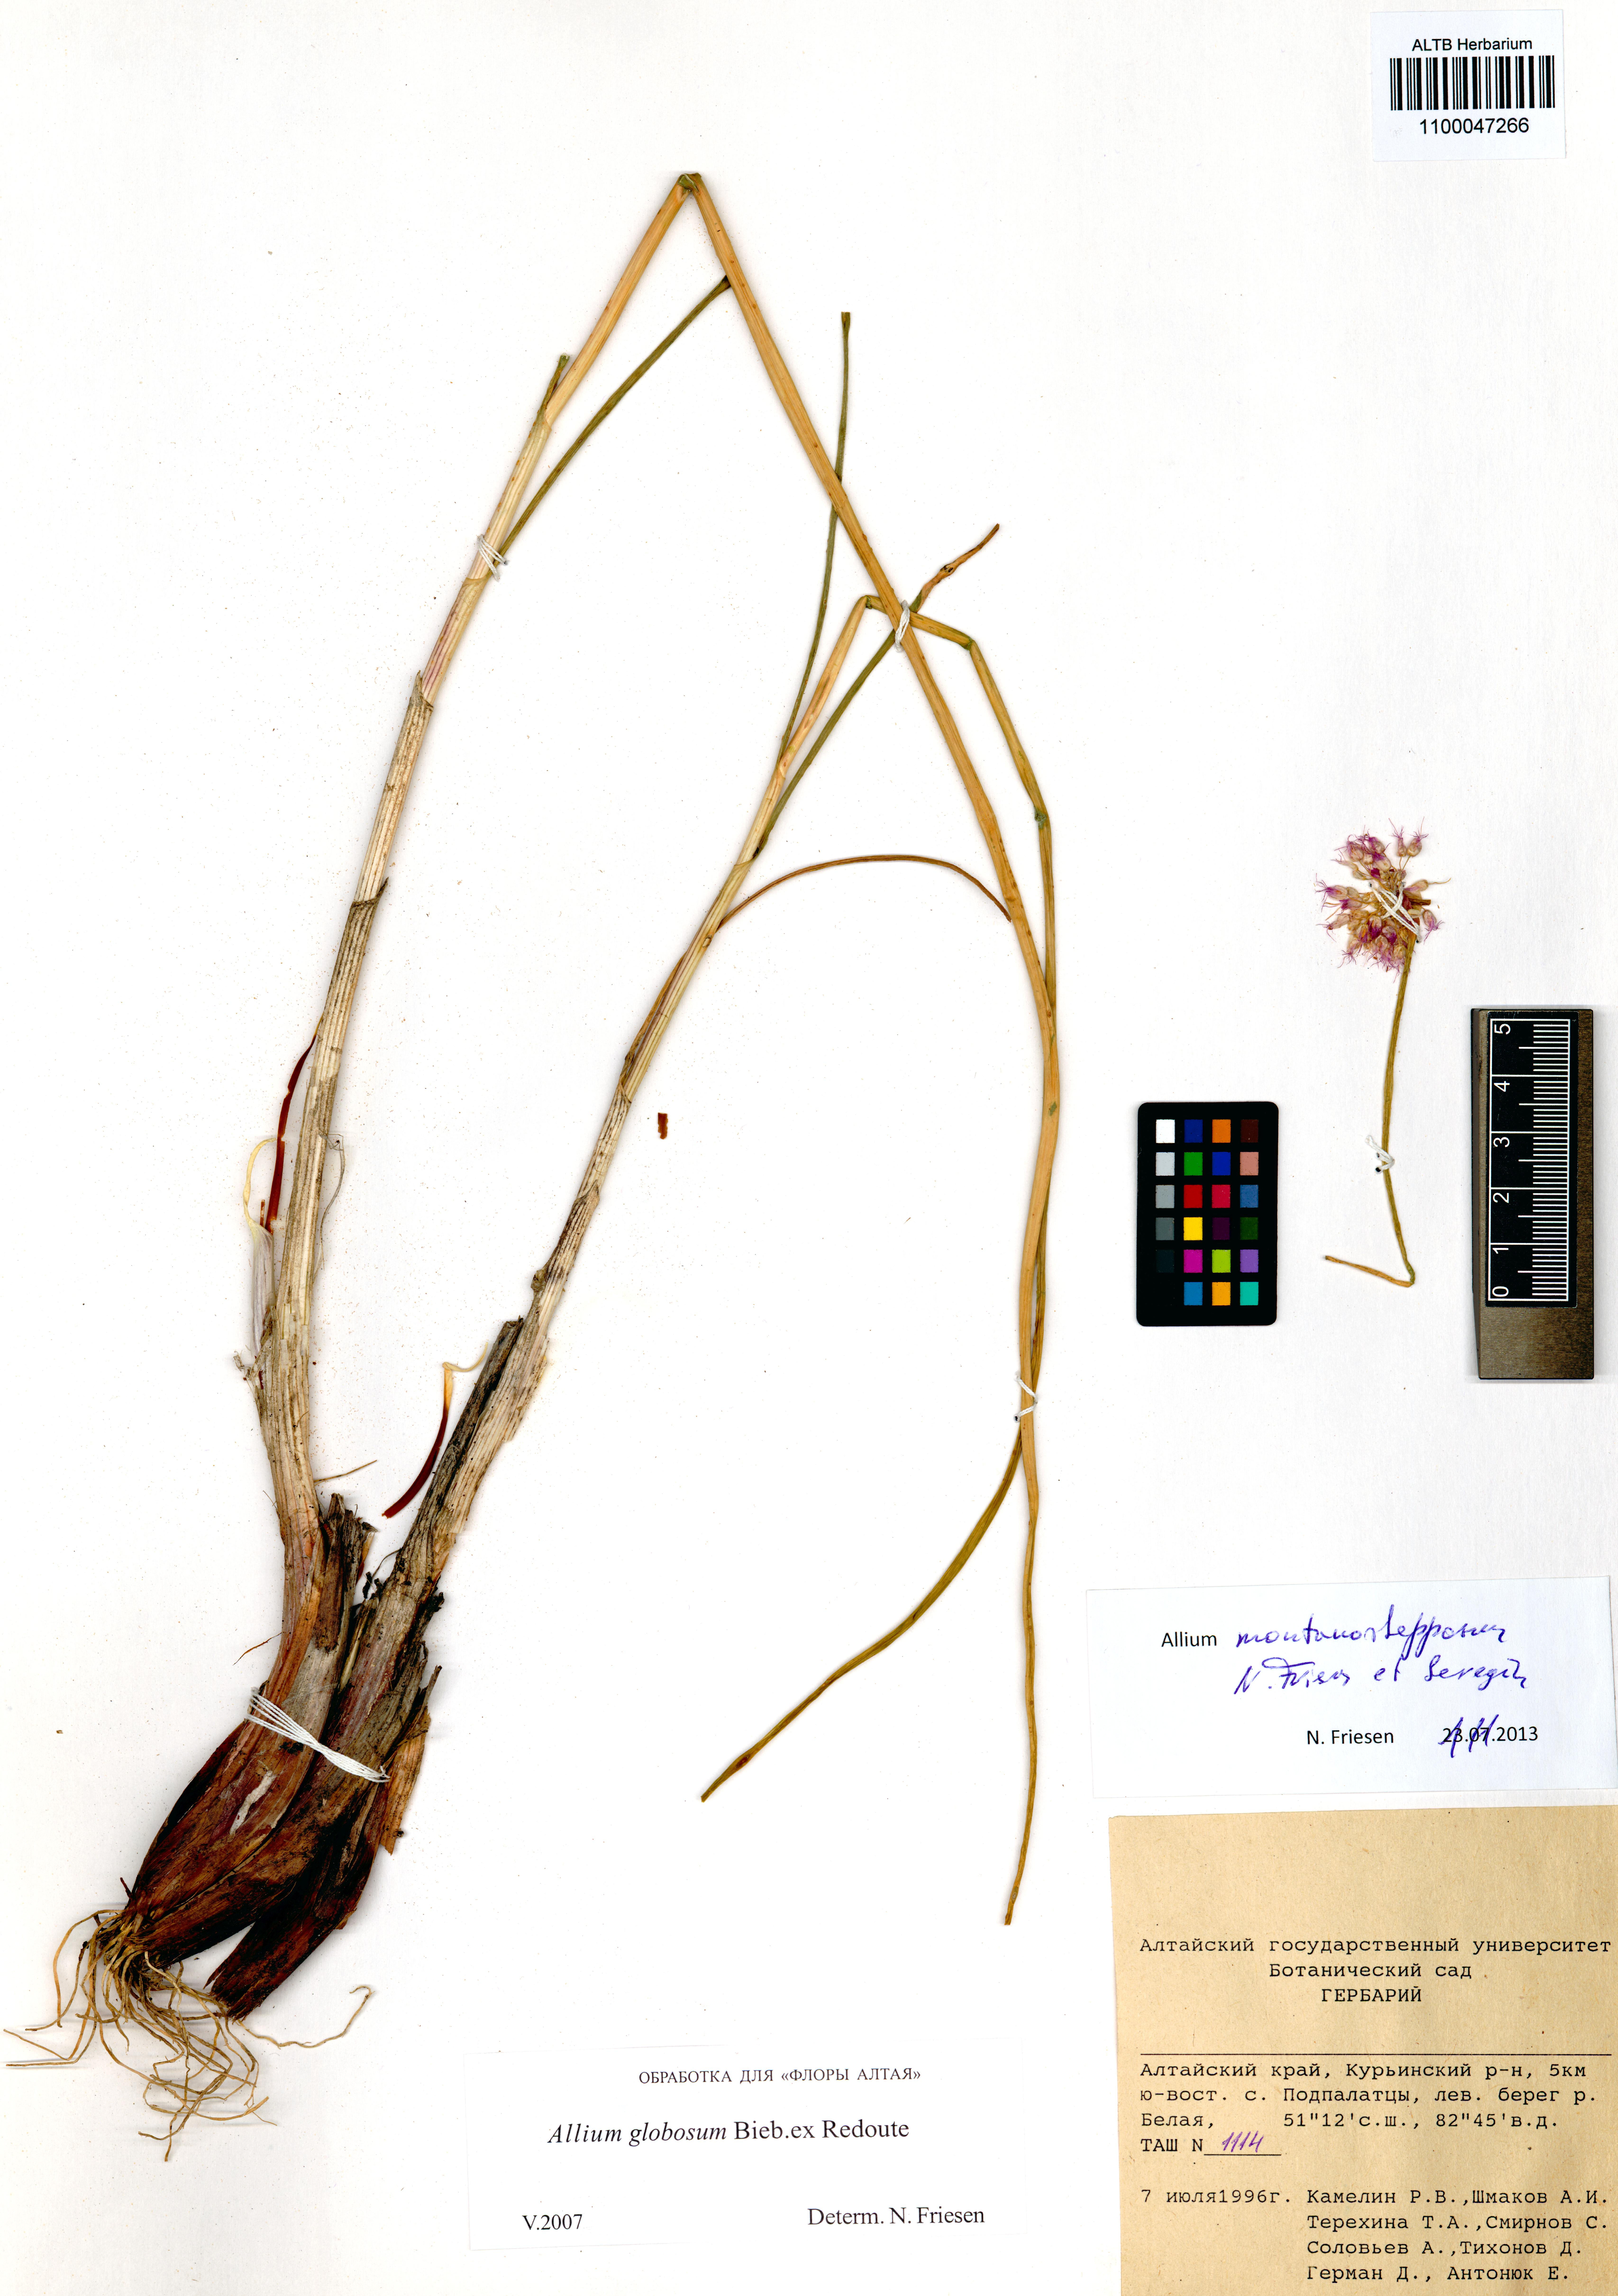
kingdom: Plantae
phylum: Tracheophyta
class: Liliopsida
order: Asparagales
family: Amaryllidaceae
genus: Allium
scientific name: Allium montanostepposum
